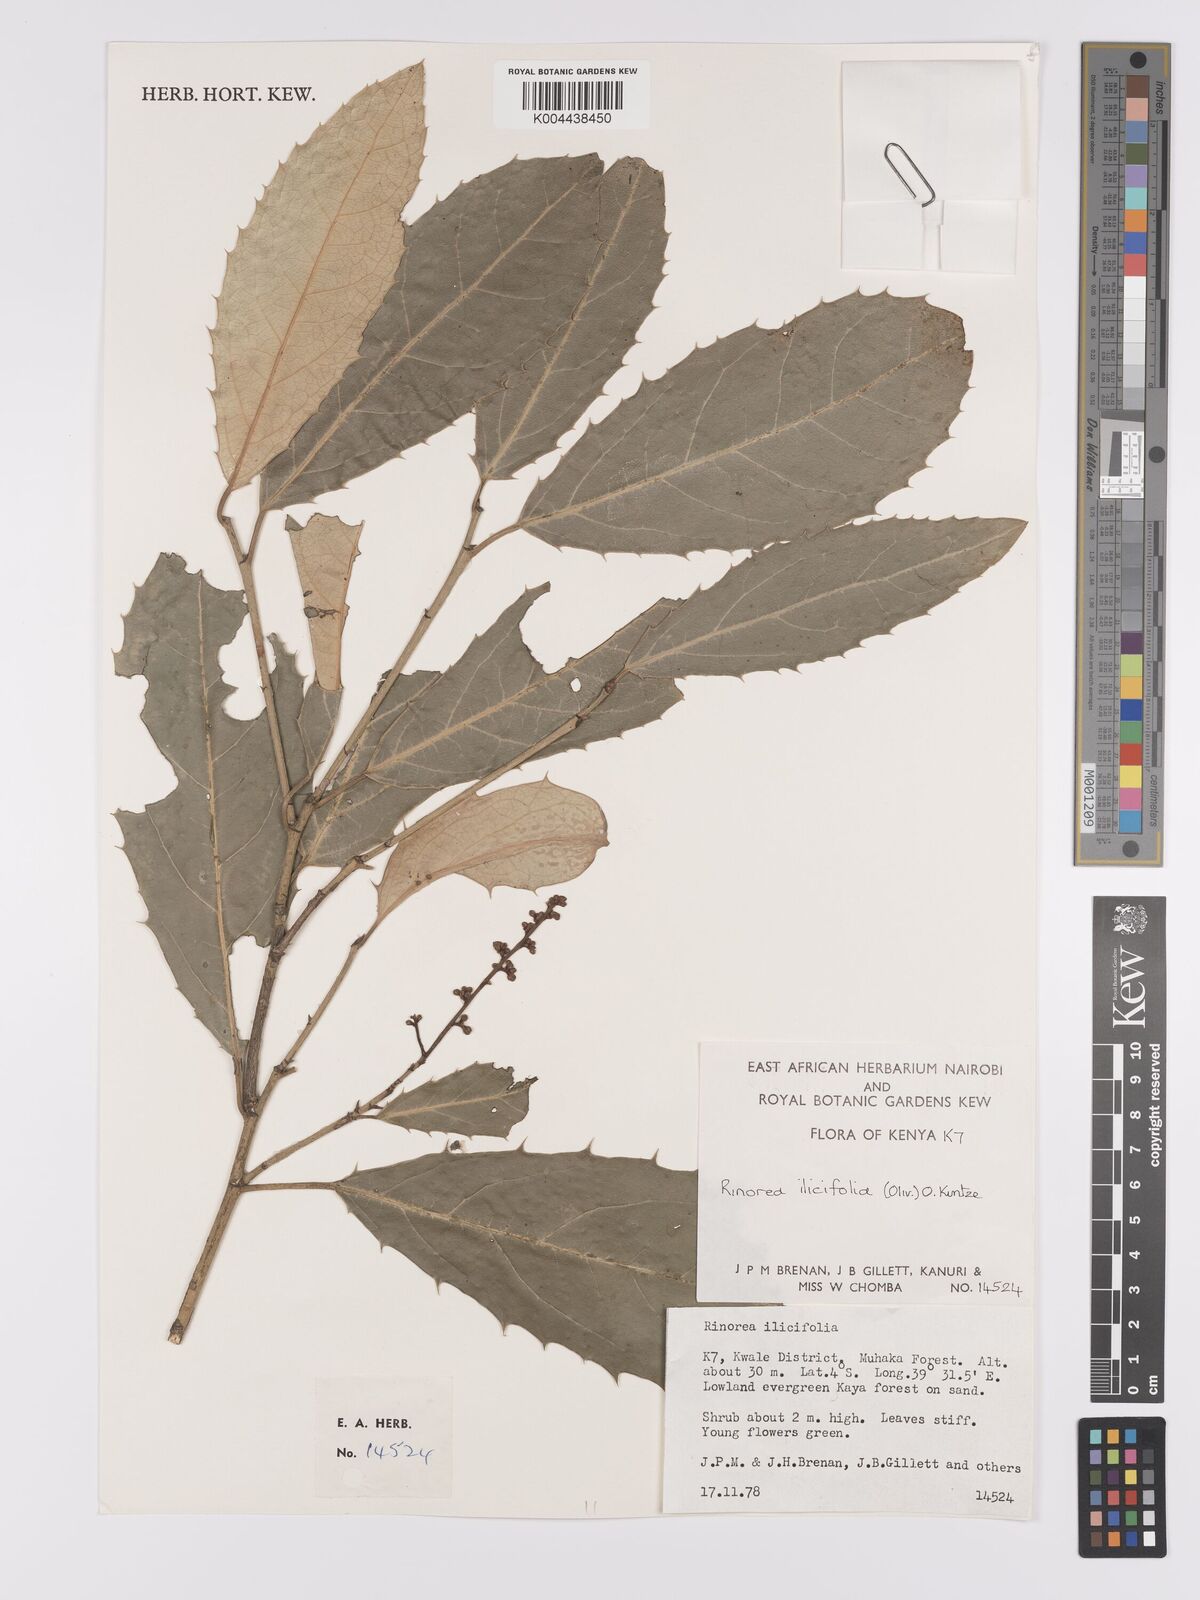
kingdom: Plantae
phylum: Tracheophyta
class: Magnoliopsida
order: Malpighiales
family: Violaceae
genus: Rinorea
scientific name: Rinorea ilicifolia
